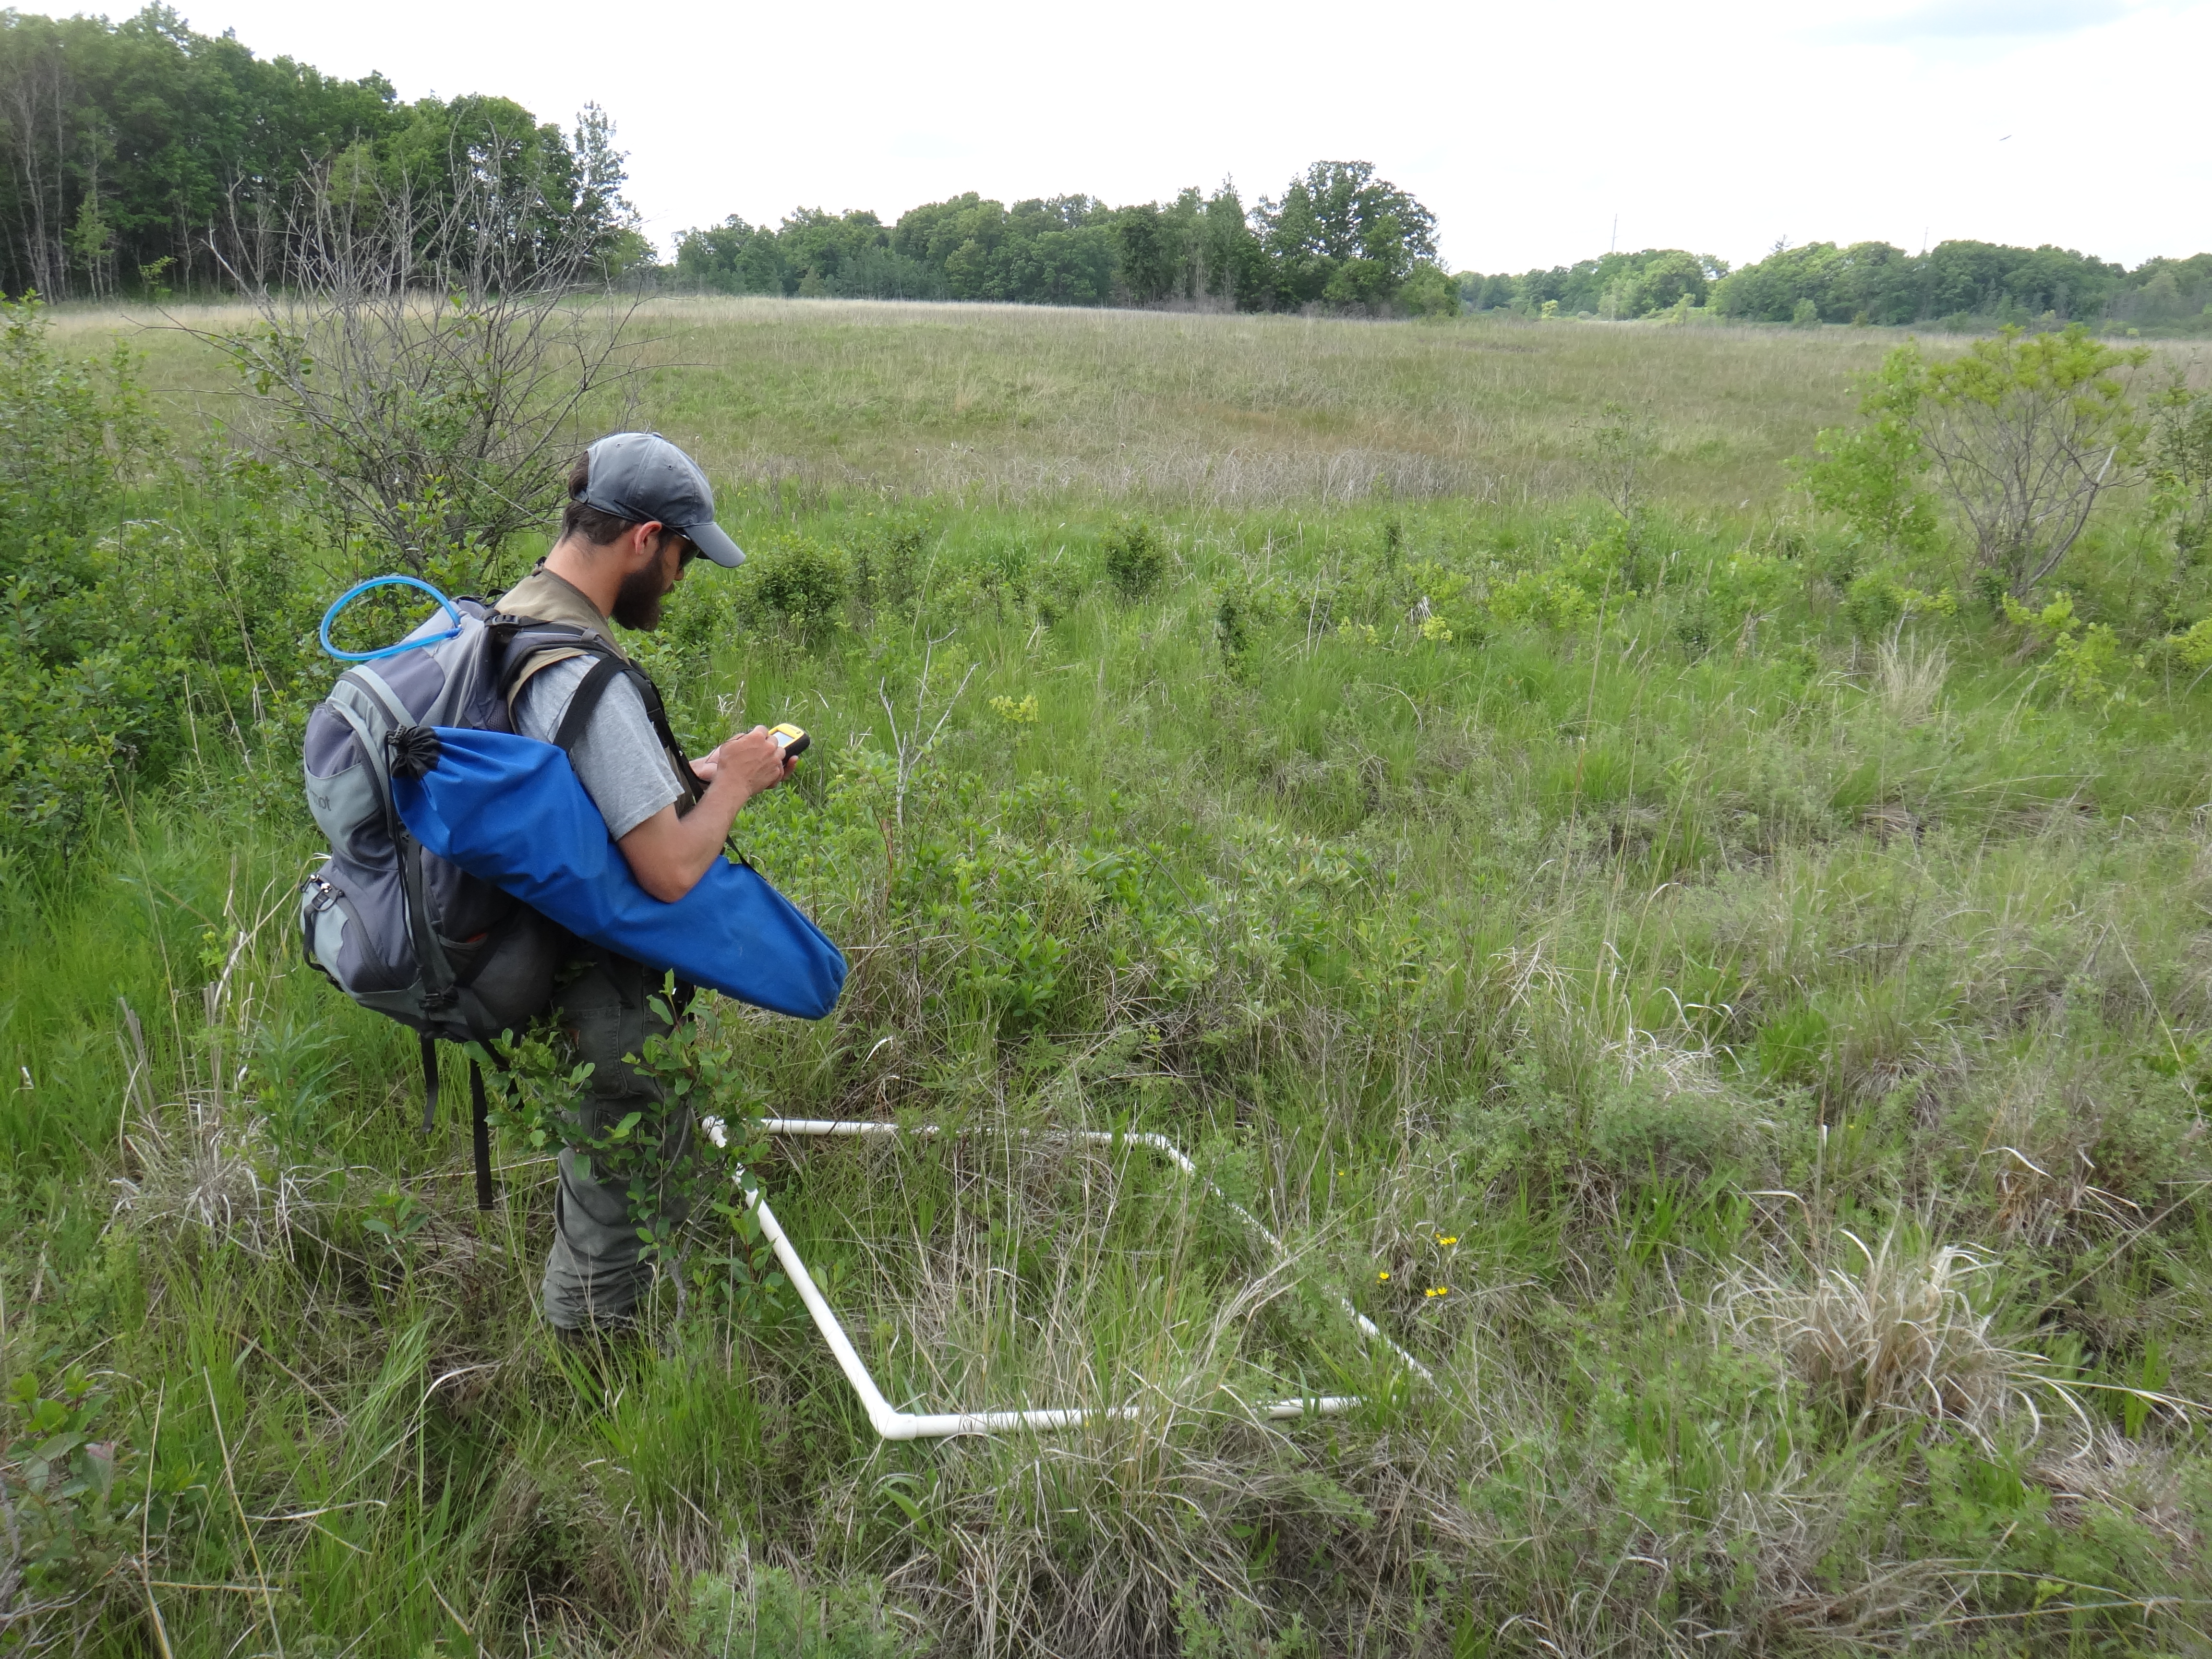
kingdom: Plantae
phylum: Tracheophyta
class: Liliopsida
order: Poales
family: Cyperaceae
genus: Carex
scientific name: Carex sterilis
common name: Dioecious sedge
